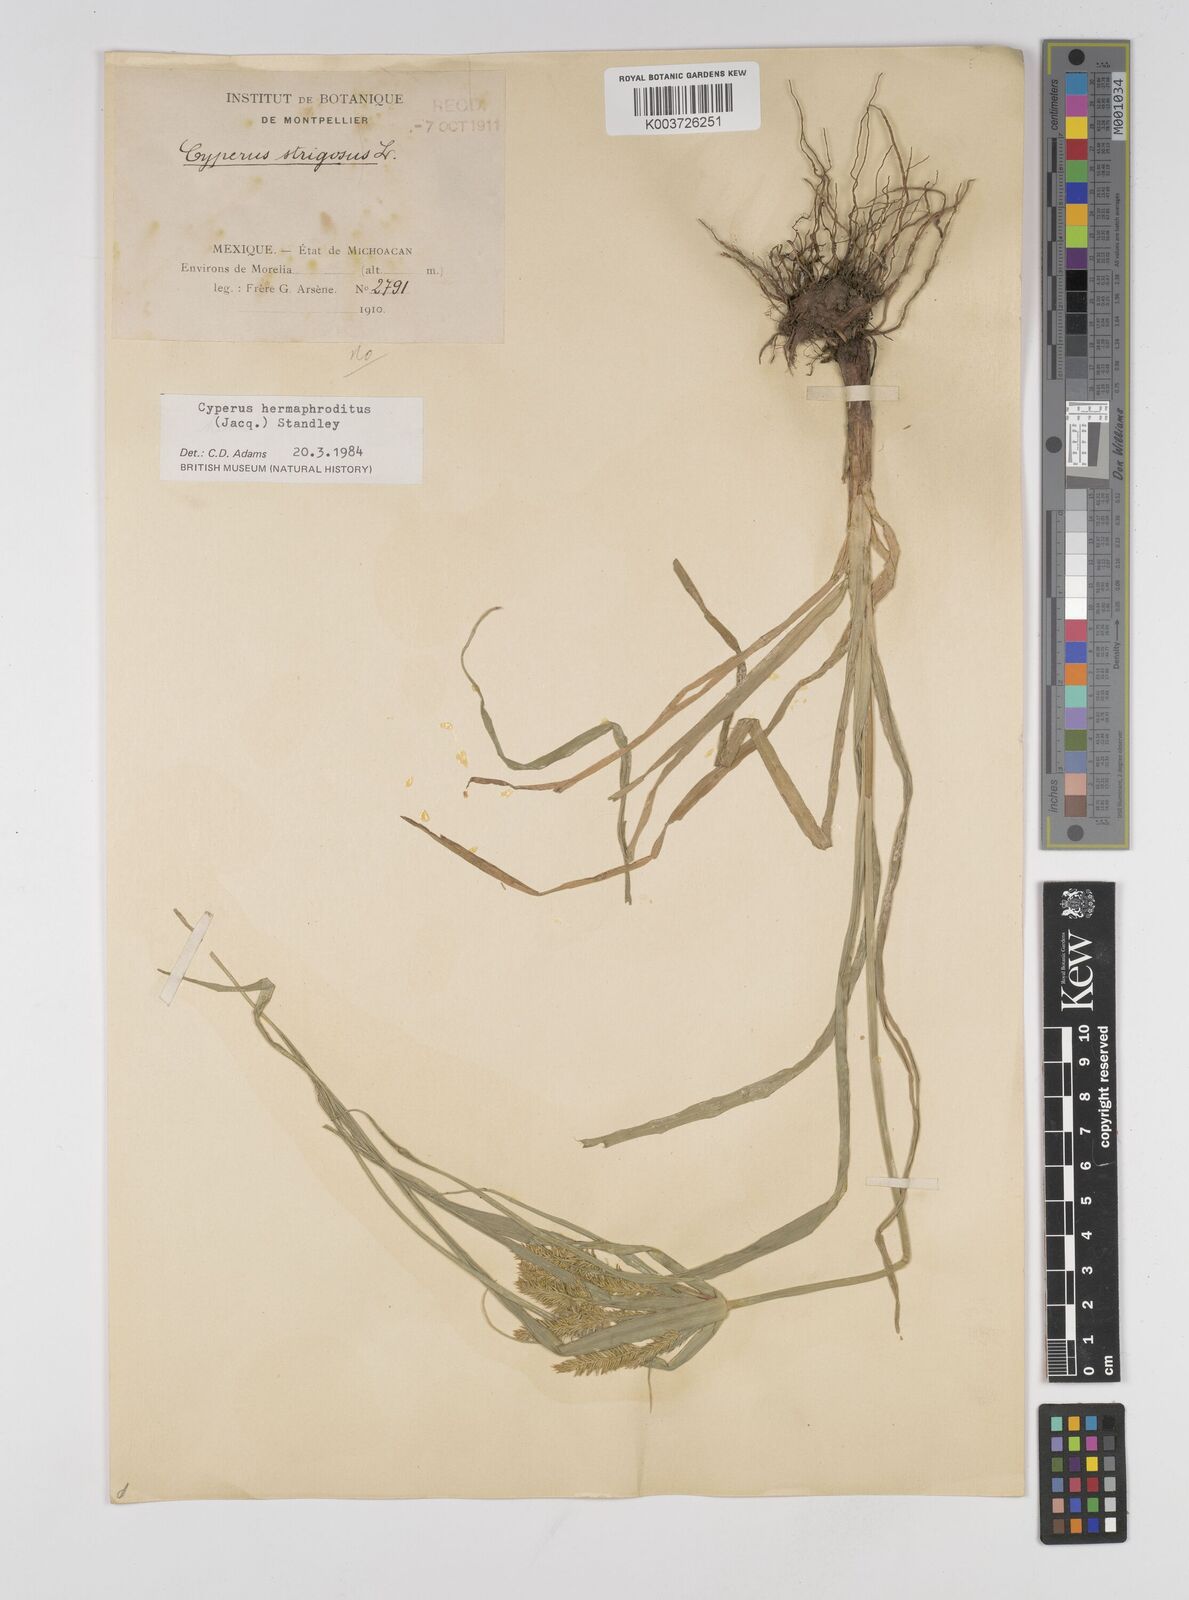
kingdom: Plantae
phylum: Tracheophyta
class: Liliopsida
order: Poales
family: Cyperaceae
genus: Cyperus
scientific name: Cyperus hermaphroditus
